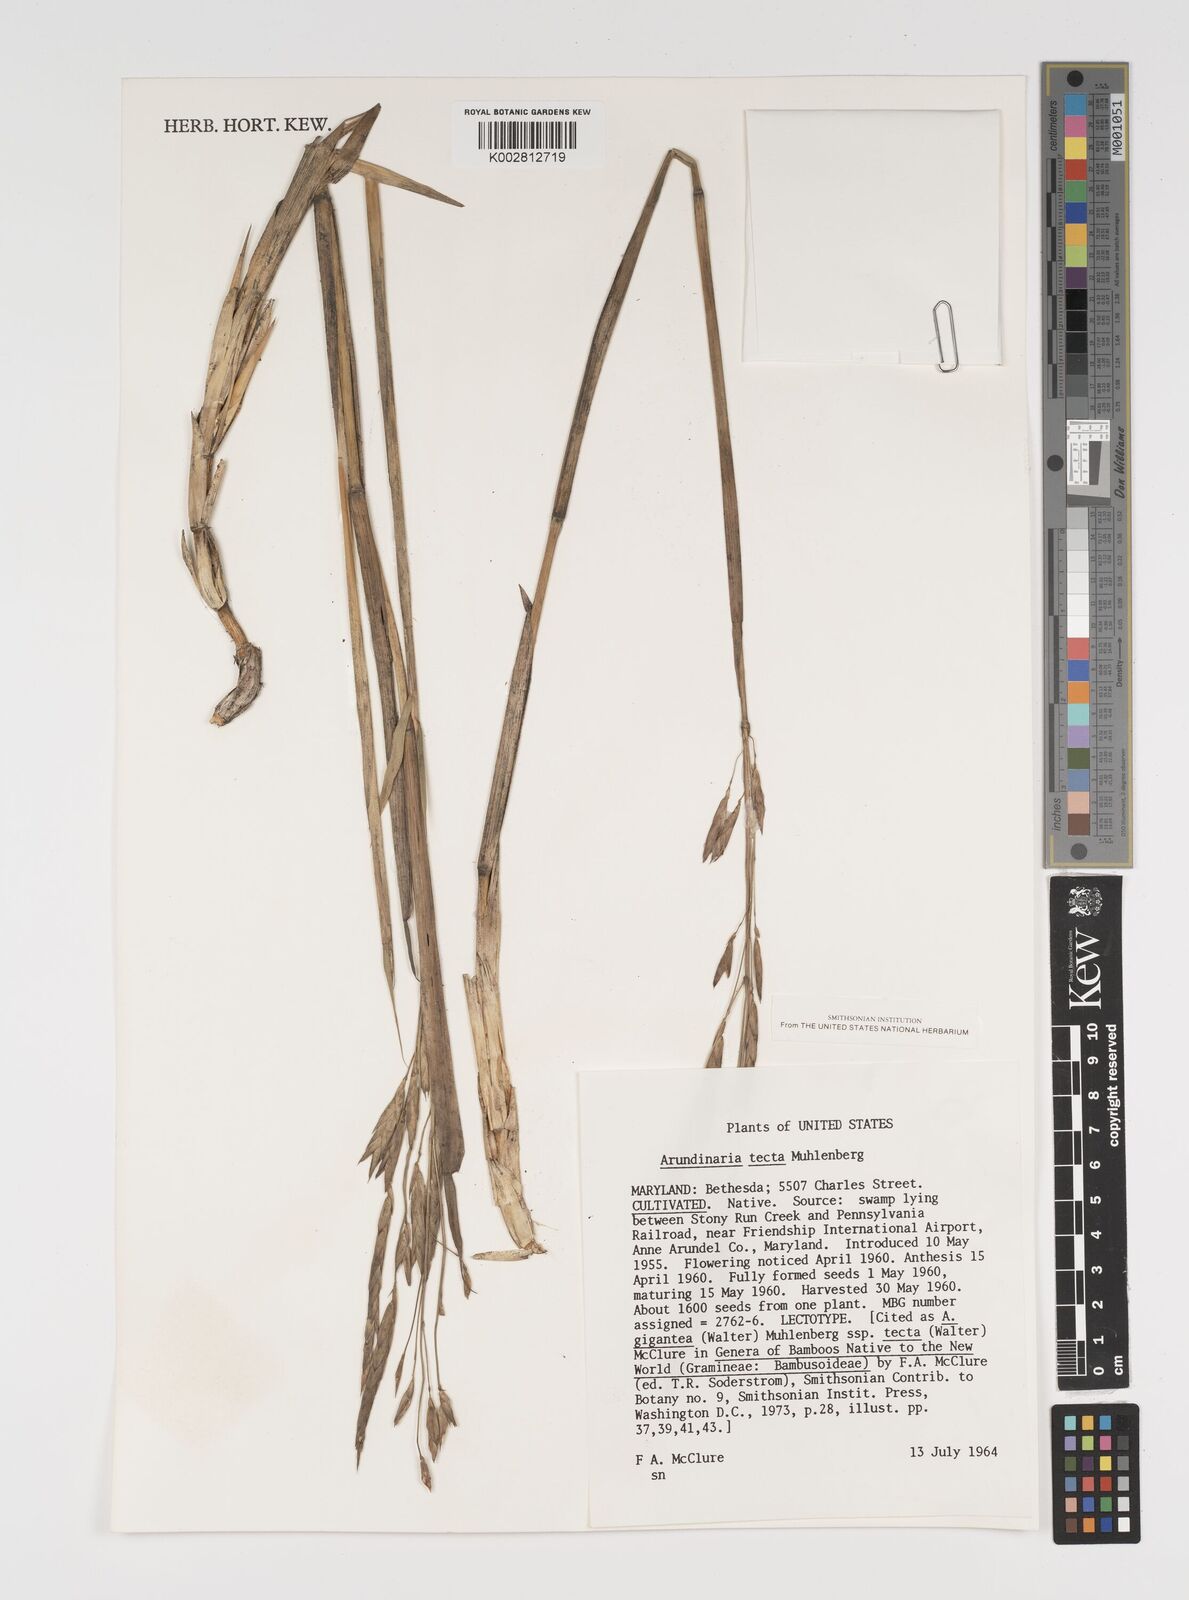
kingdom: Plantae
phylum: Tracheophyta
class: Liliopsida
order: Poales
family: Poaceae
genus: Arundinaria
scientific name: Arundinaria tecta
